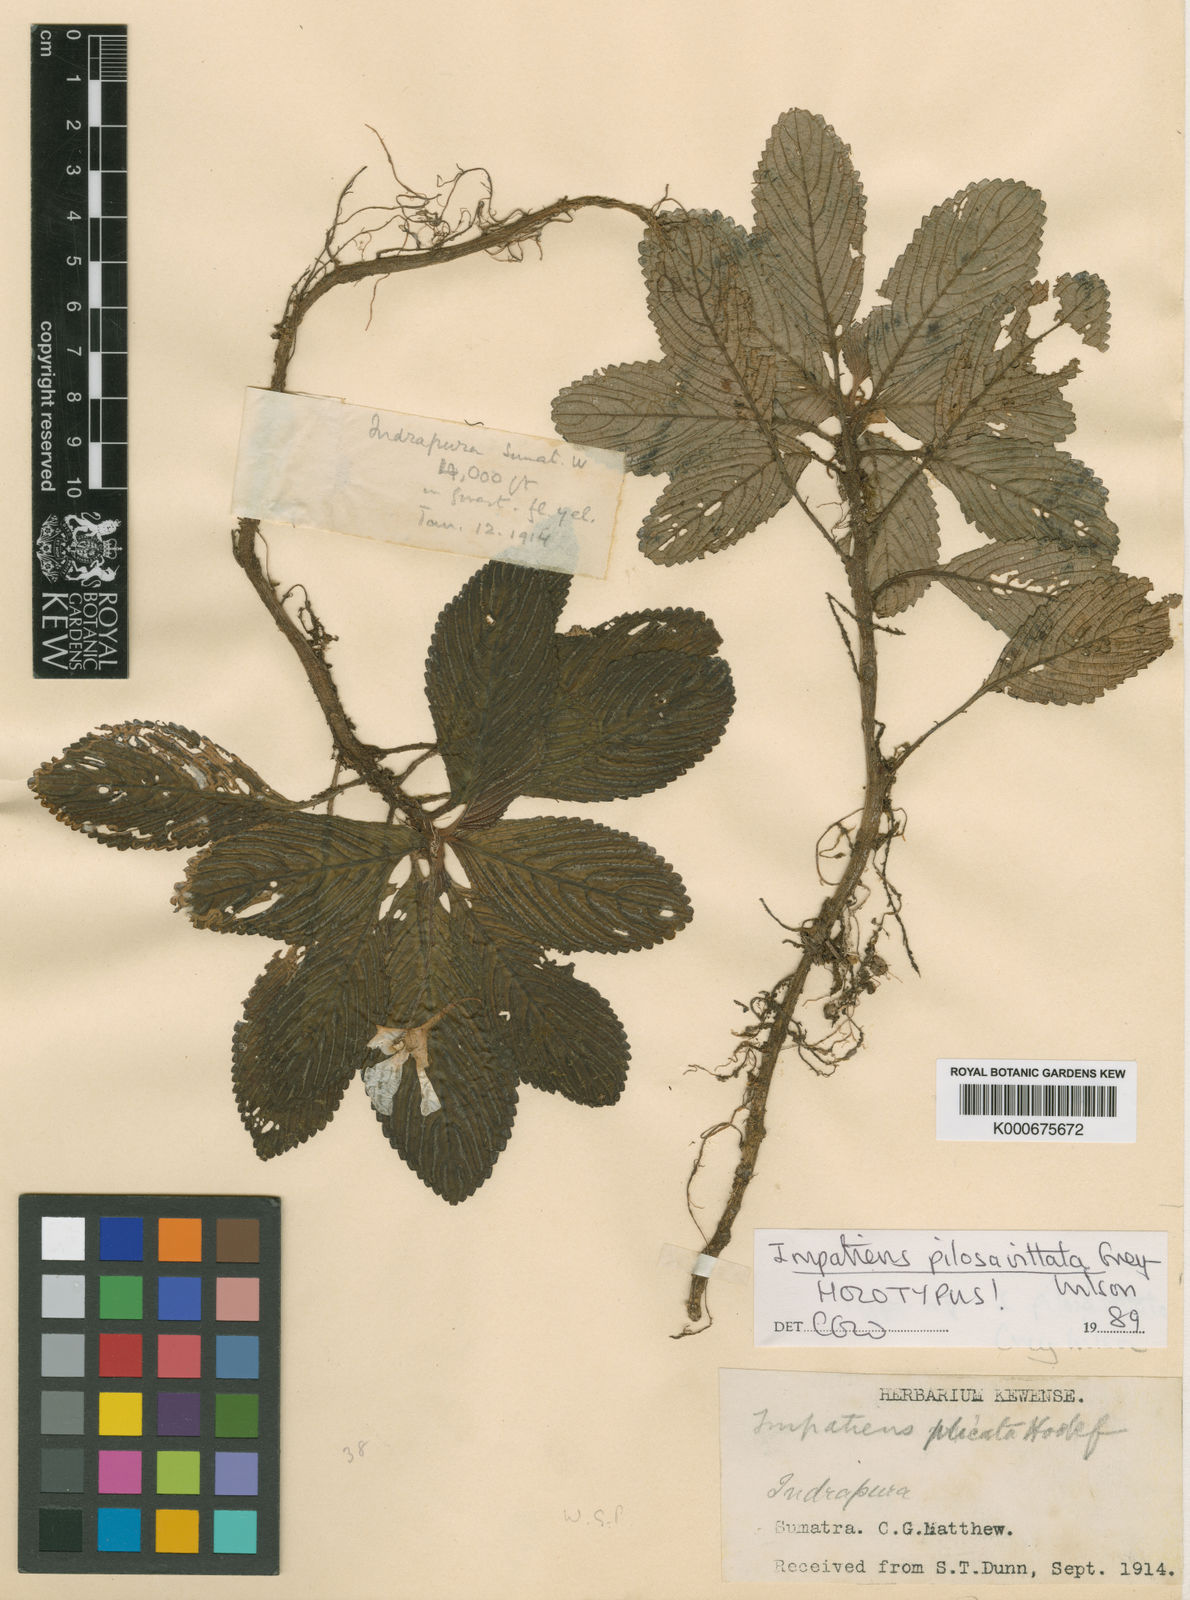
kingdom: Plantae
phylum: Tracheophyta
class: Magnoliopsida
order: Ericales
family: Balsaminaceae
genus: Impatiens
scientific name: Impatiens pilosivittata
